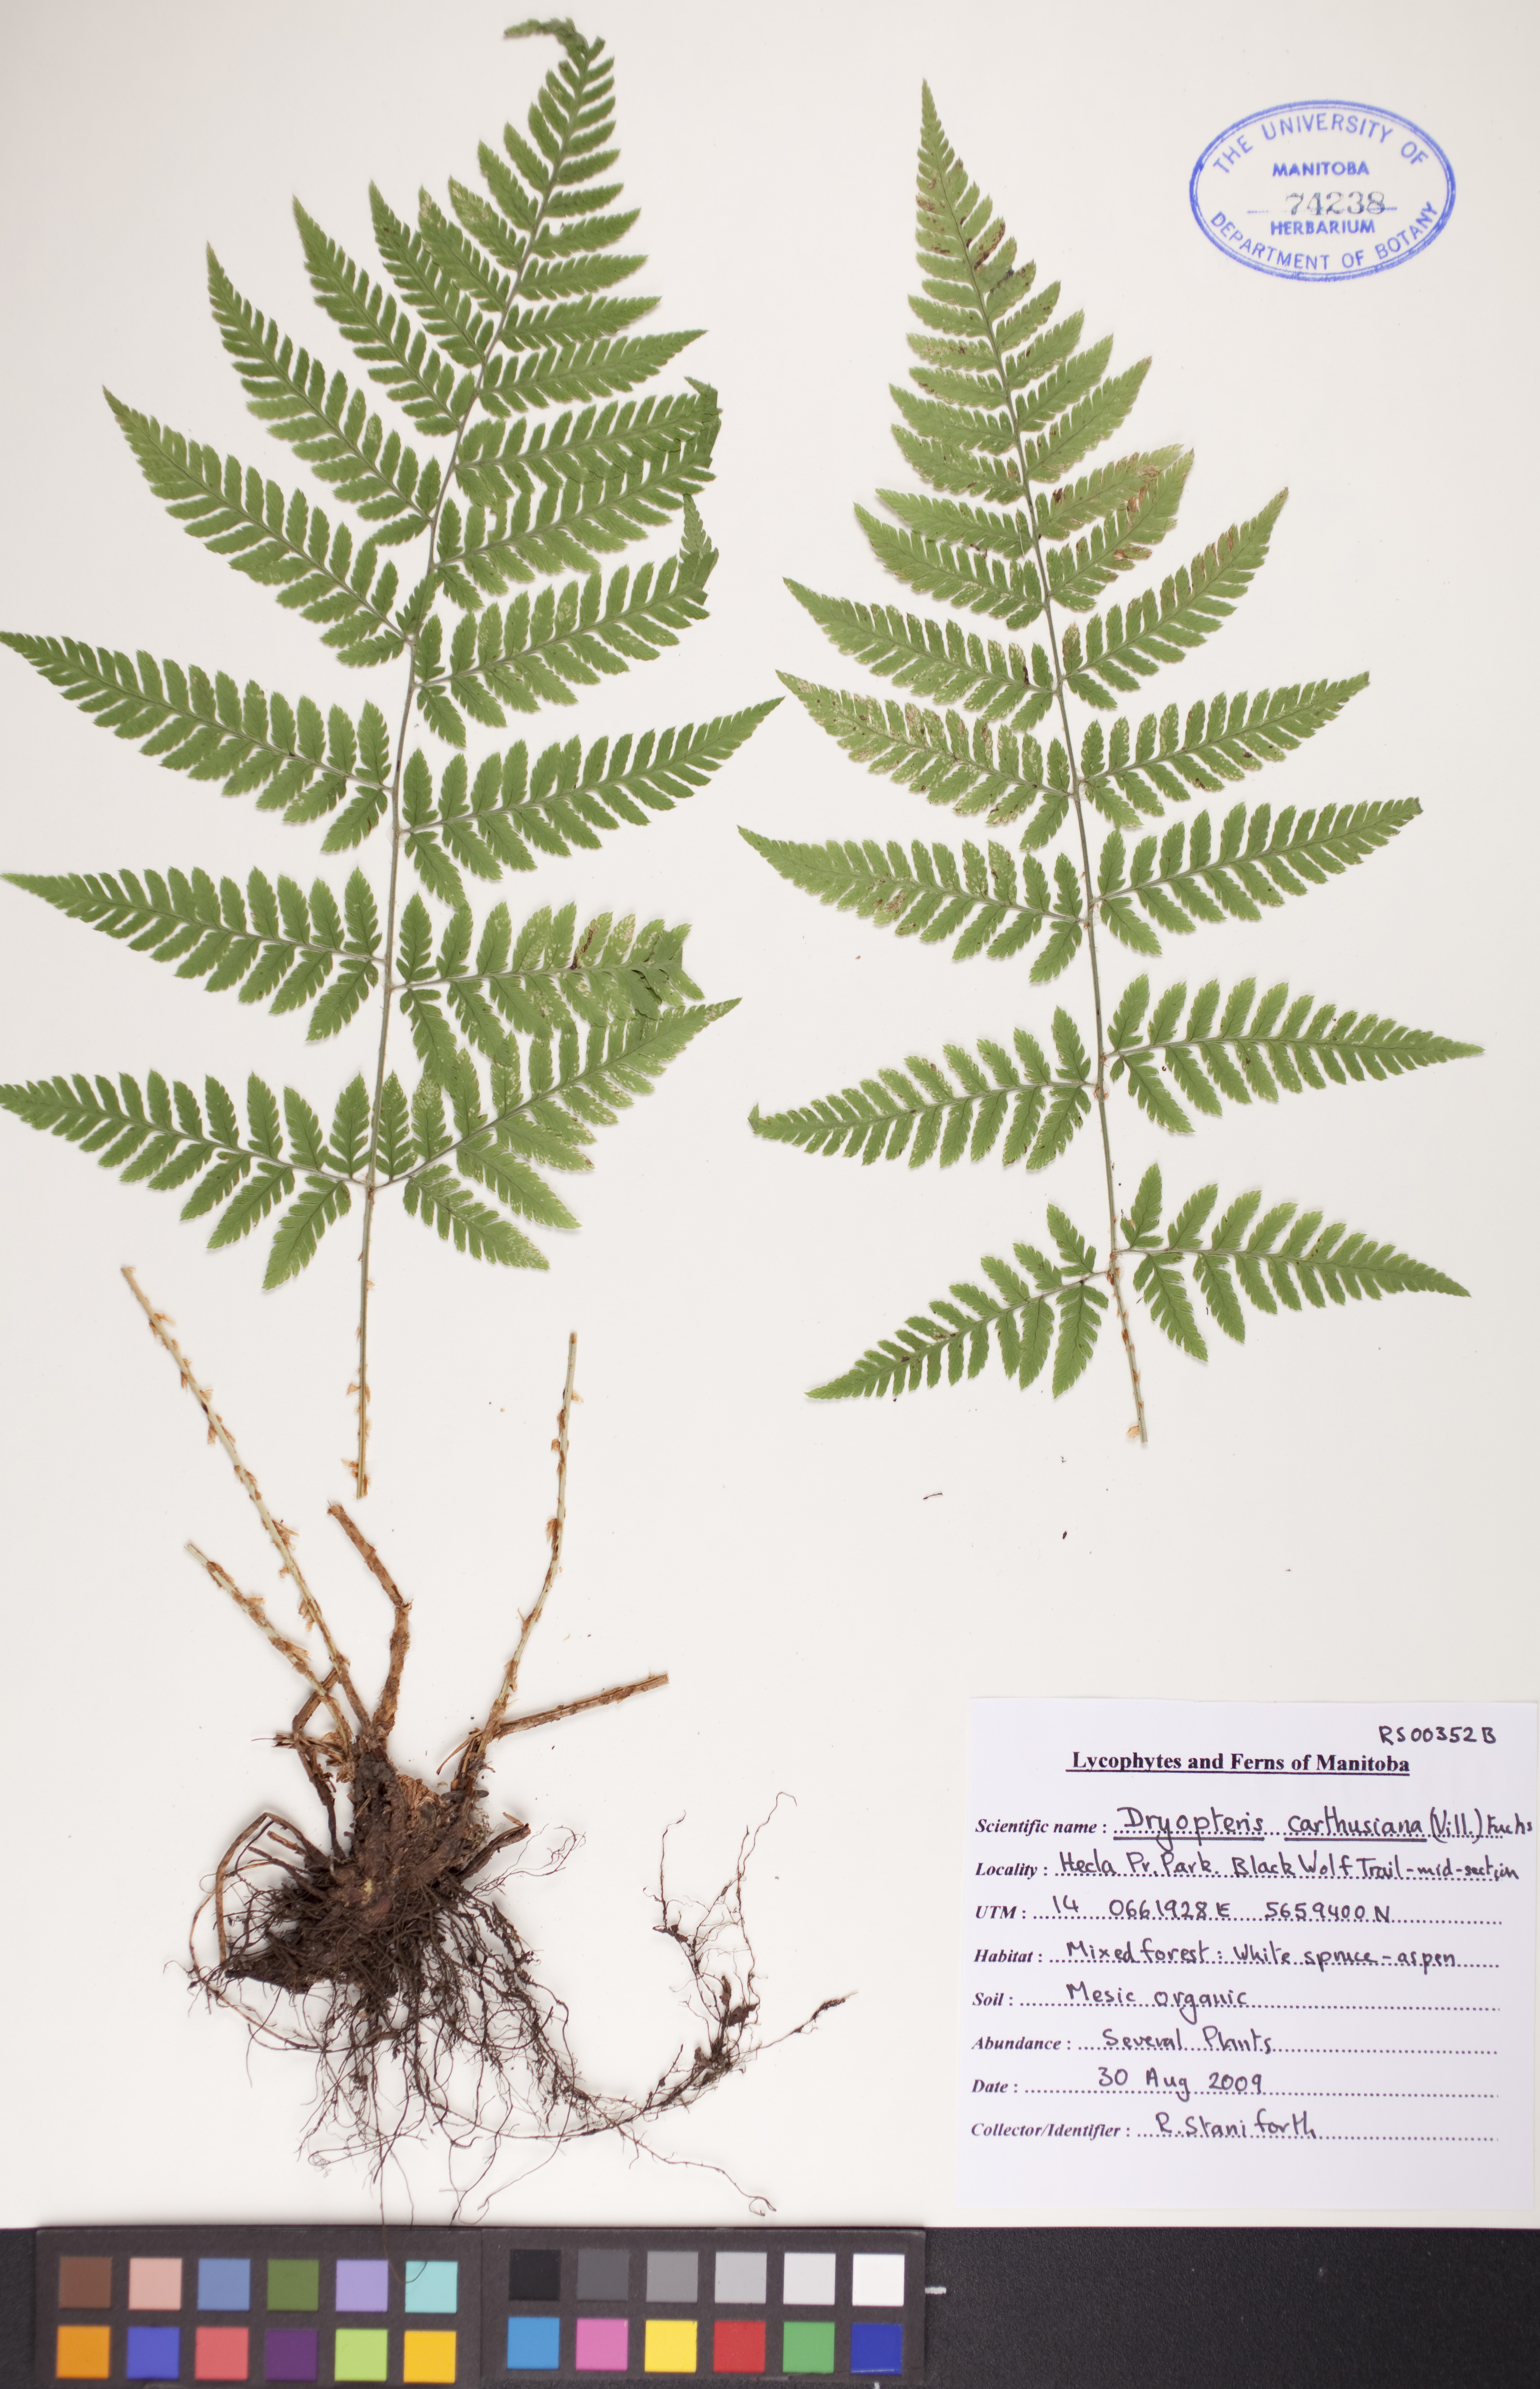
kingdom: Plantae
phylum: Tracheophyta
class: Polypodiopsida
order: Polypodiales
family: Dryopteridaceae
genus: Dryopteris
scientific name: Dryopteris carthusiana
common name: Narrow buckler-fern
